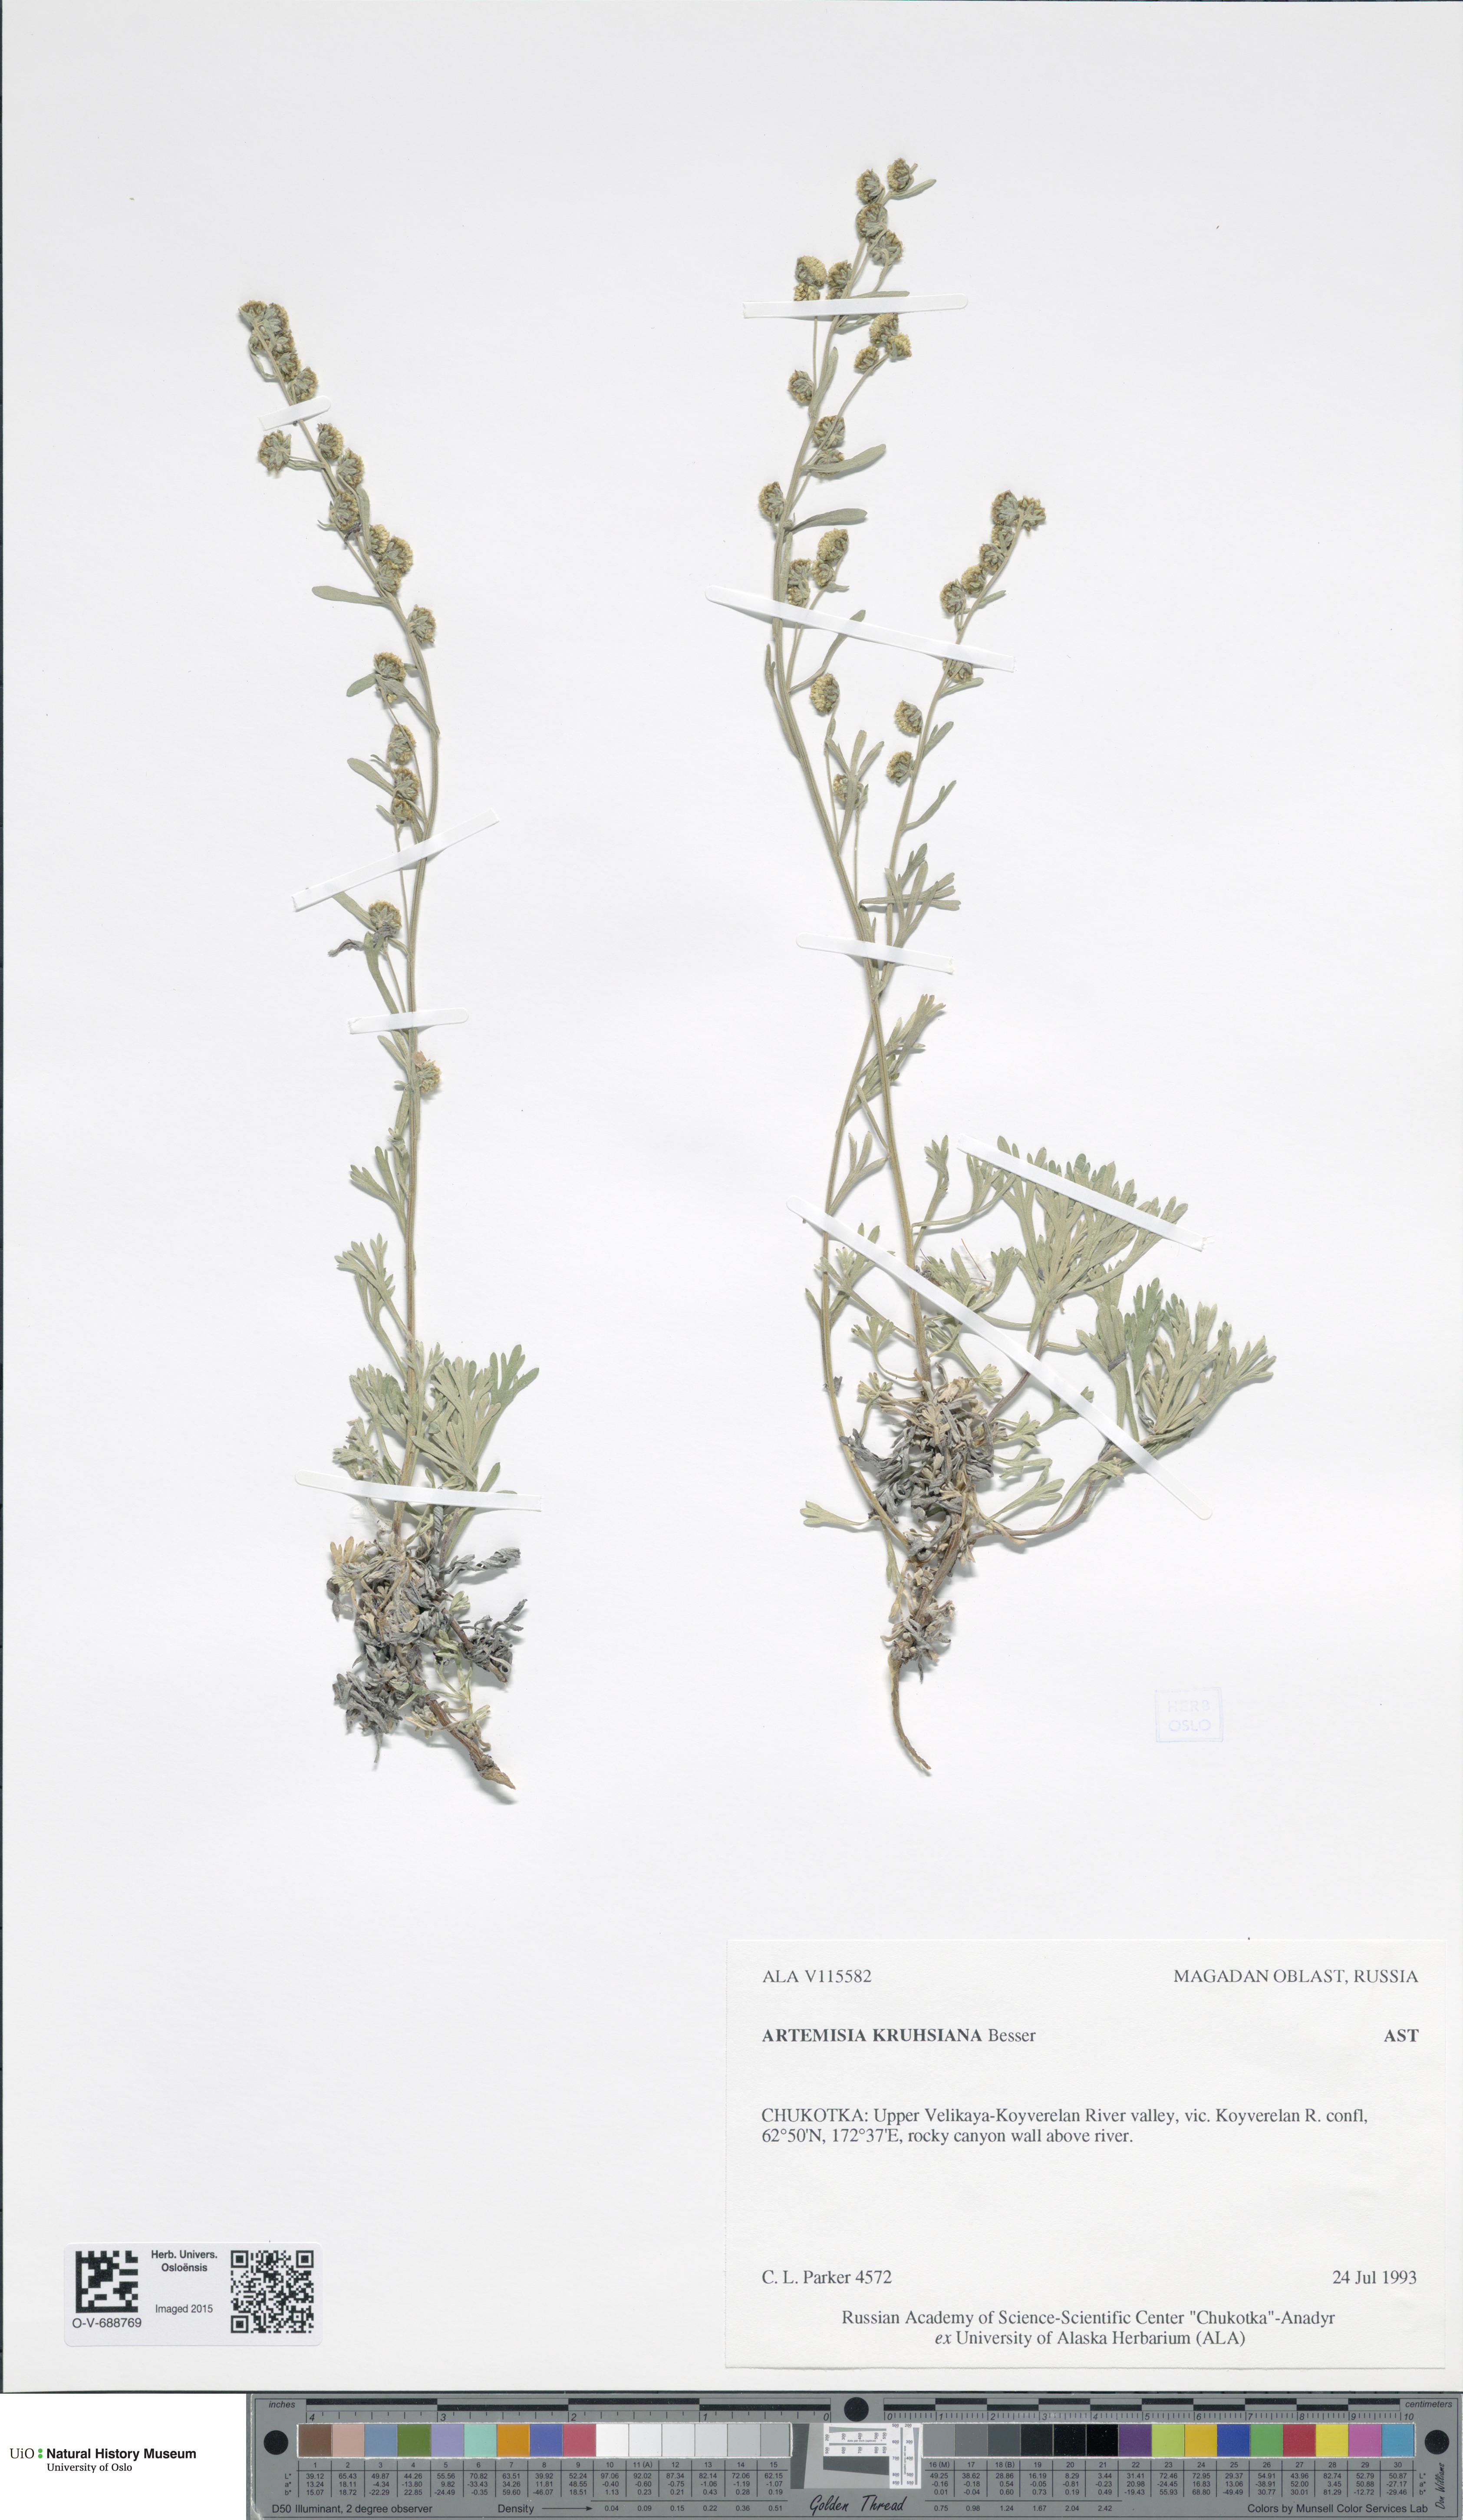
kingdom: Plantae
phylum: Tracheophyta
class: Magnoliopsida
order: Asterales
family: Asteraceae
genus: Artemisia
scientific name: Artemisia kruhsiana
